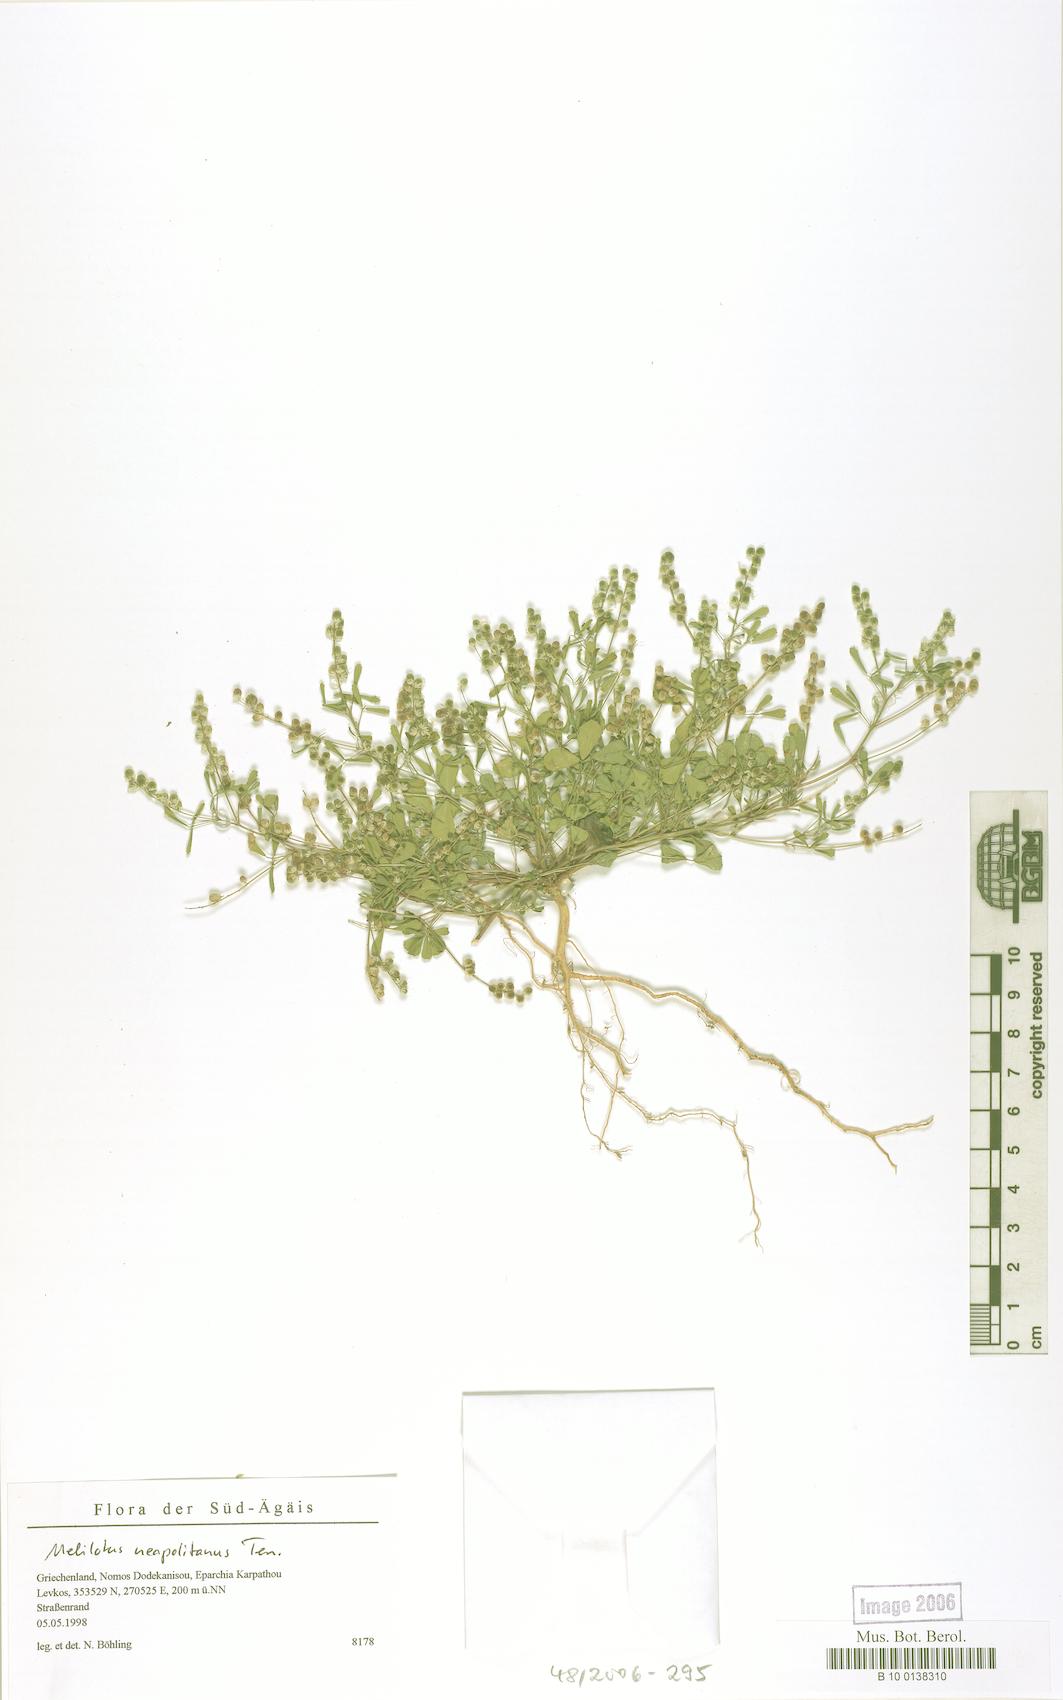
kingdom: Plantae
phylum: Tracheophyta
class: Magnoliopsida
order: Fabales
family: Fabaceae
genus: Melilotus
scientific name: Melilotus neapolitanus
